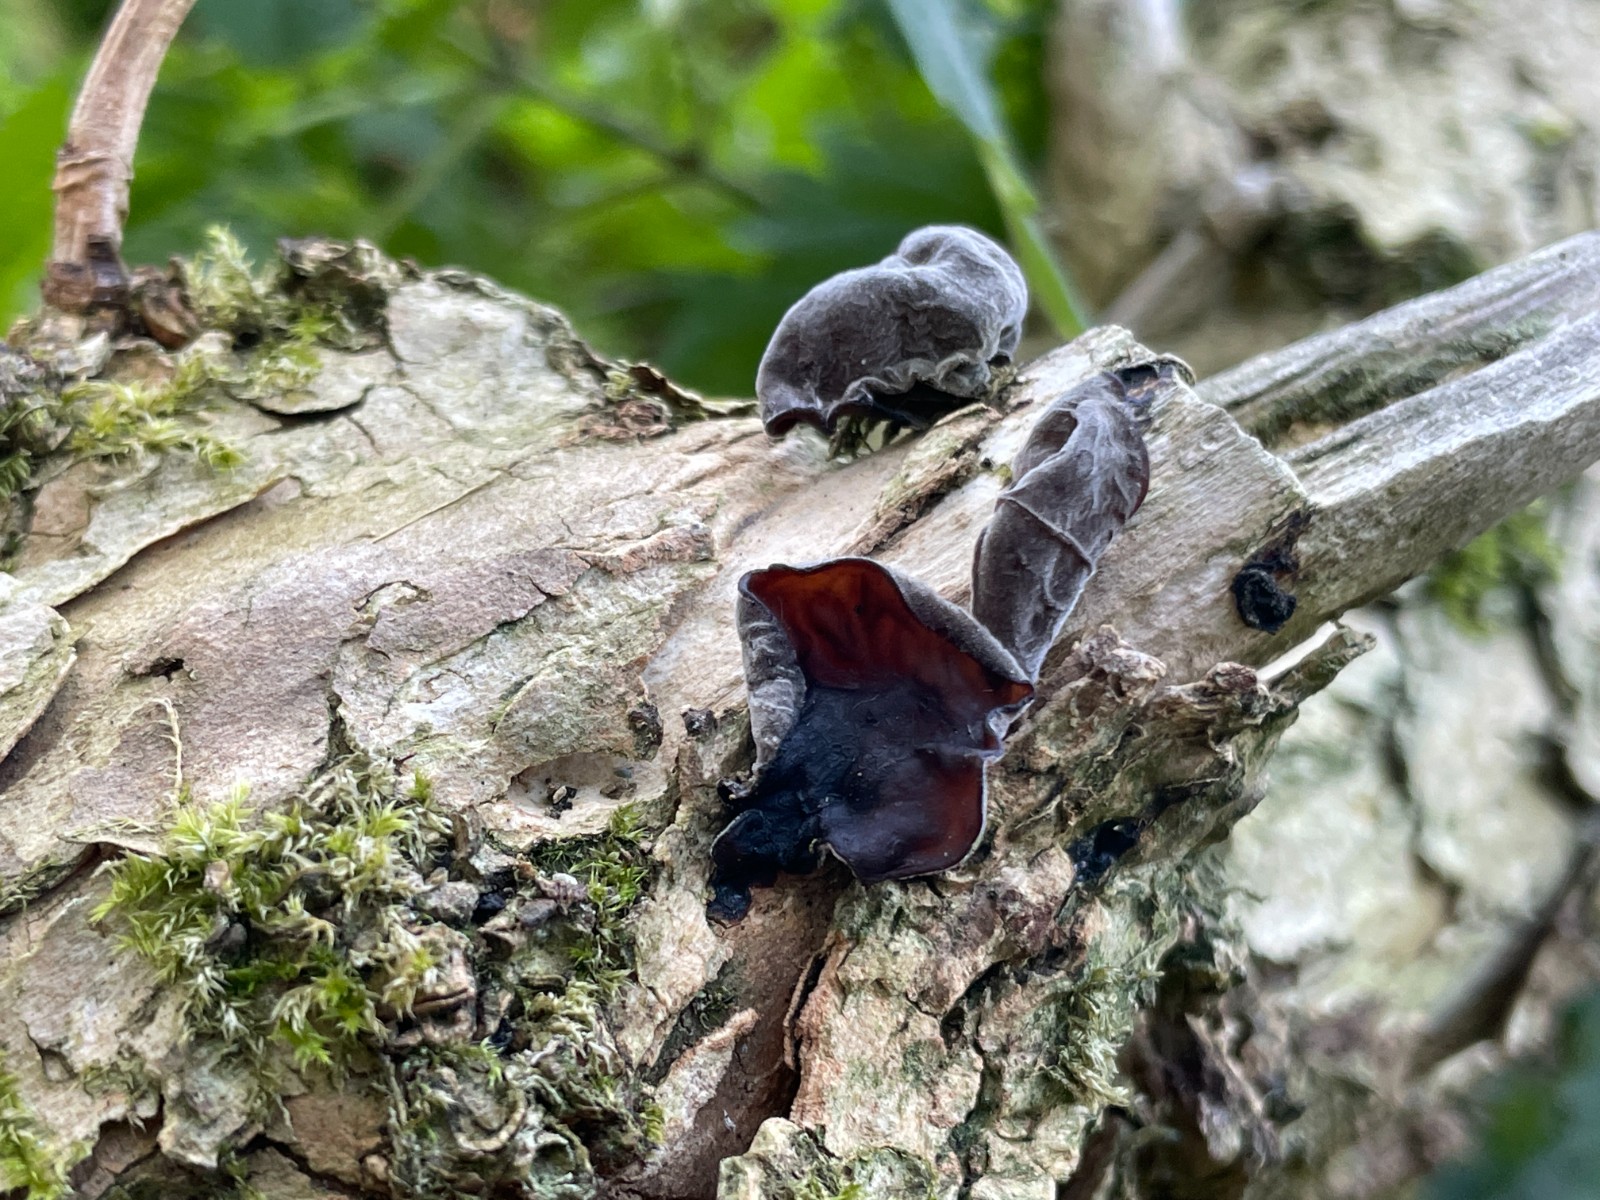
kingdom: Fungi
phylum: Basidiomycota
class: Agaricomycetes
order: Auriculariales
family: Auriculariaceae
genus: Auricularia
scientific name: Auricularia auricula-judae
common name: almindelig judasøre
